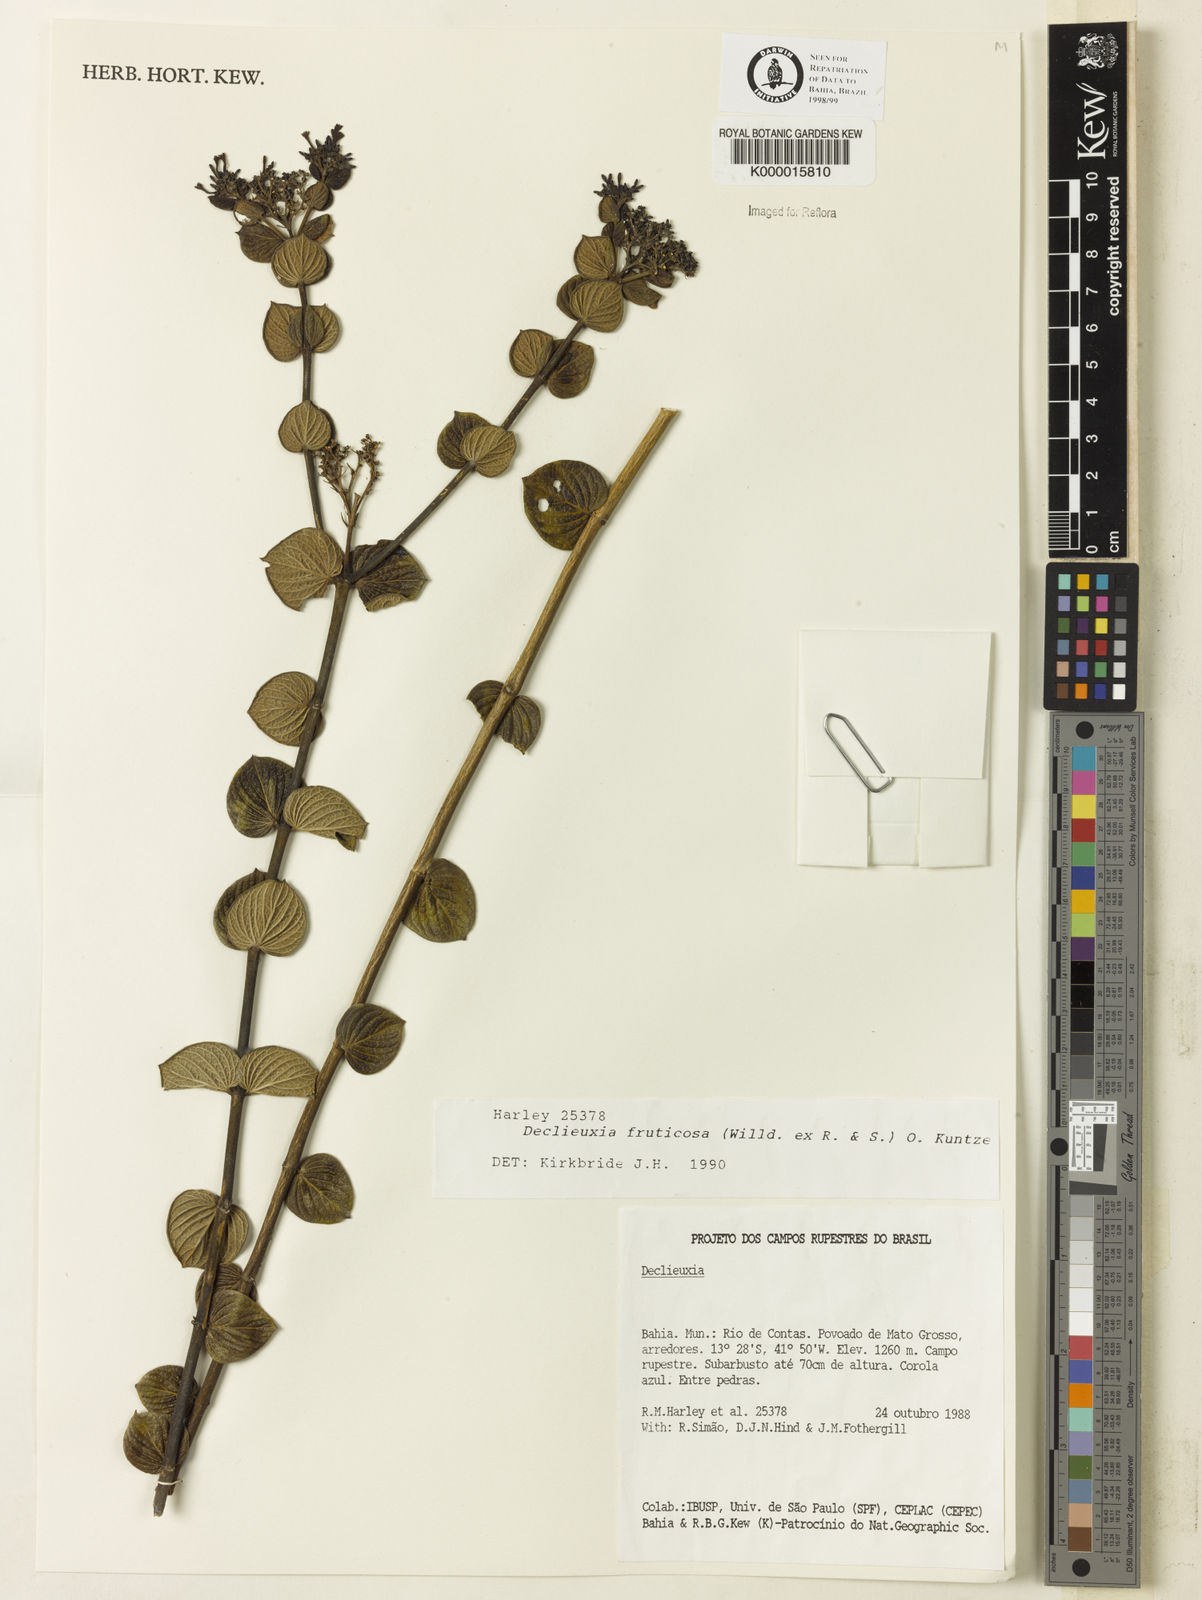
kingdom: Plantae
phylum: Tracheophyta
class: Magnoliopsida
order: Gentianales
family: Rubiaceae
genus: Declieuxia
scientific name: Declieuxia fruticosa
